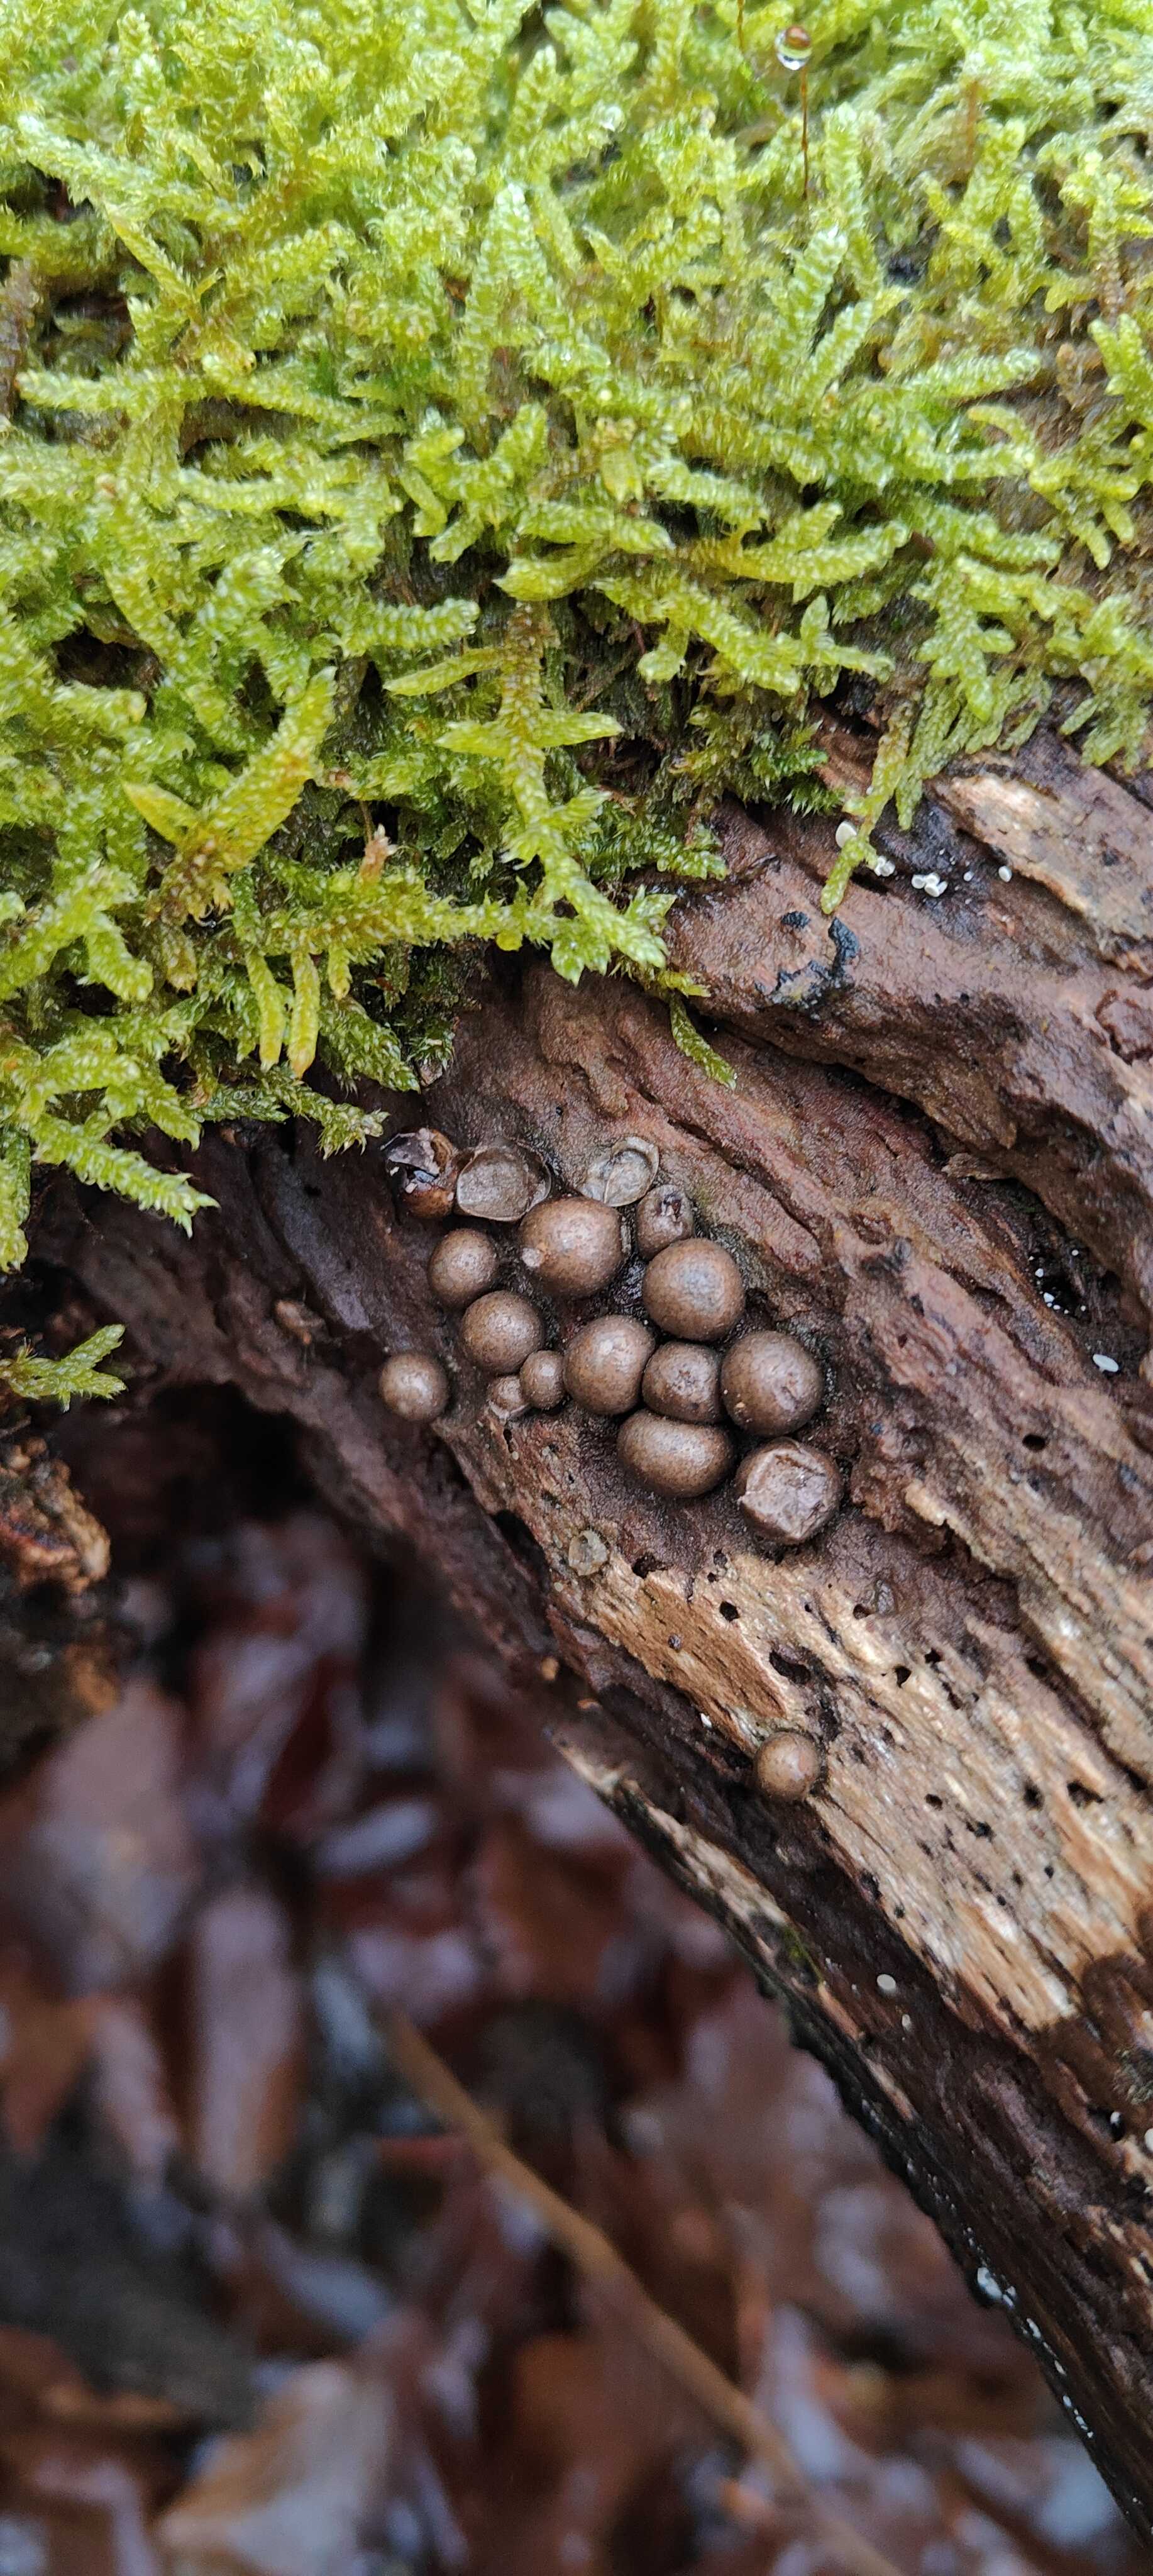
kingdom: Protozoa
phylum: Mycetozoa
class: Myxomycetes
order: Cribrariales
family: Tubiferaceae
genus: Lycogala
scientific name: Lycogala epidendrum
